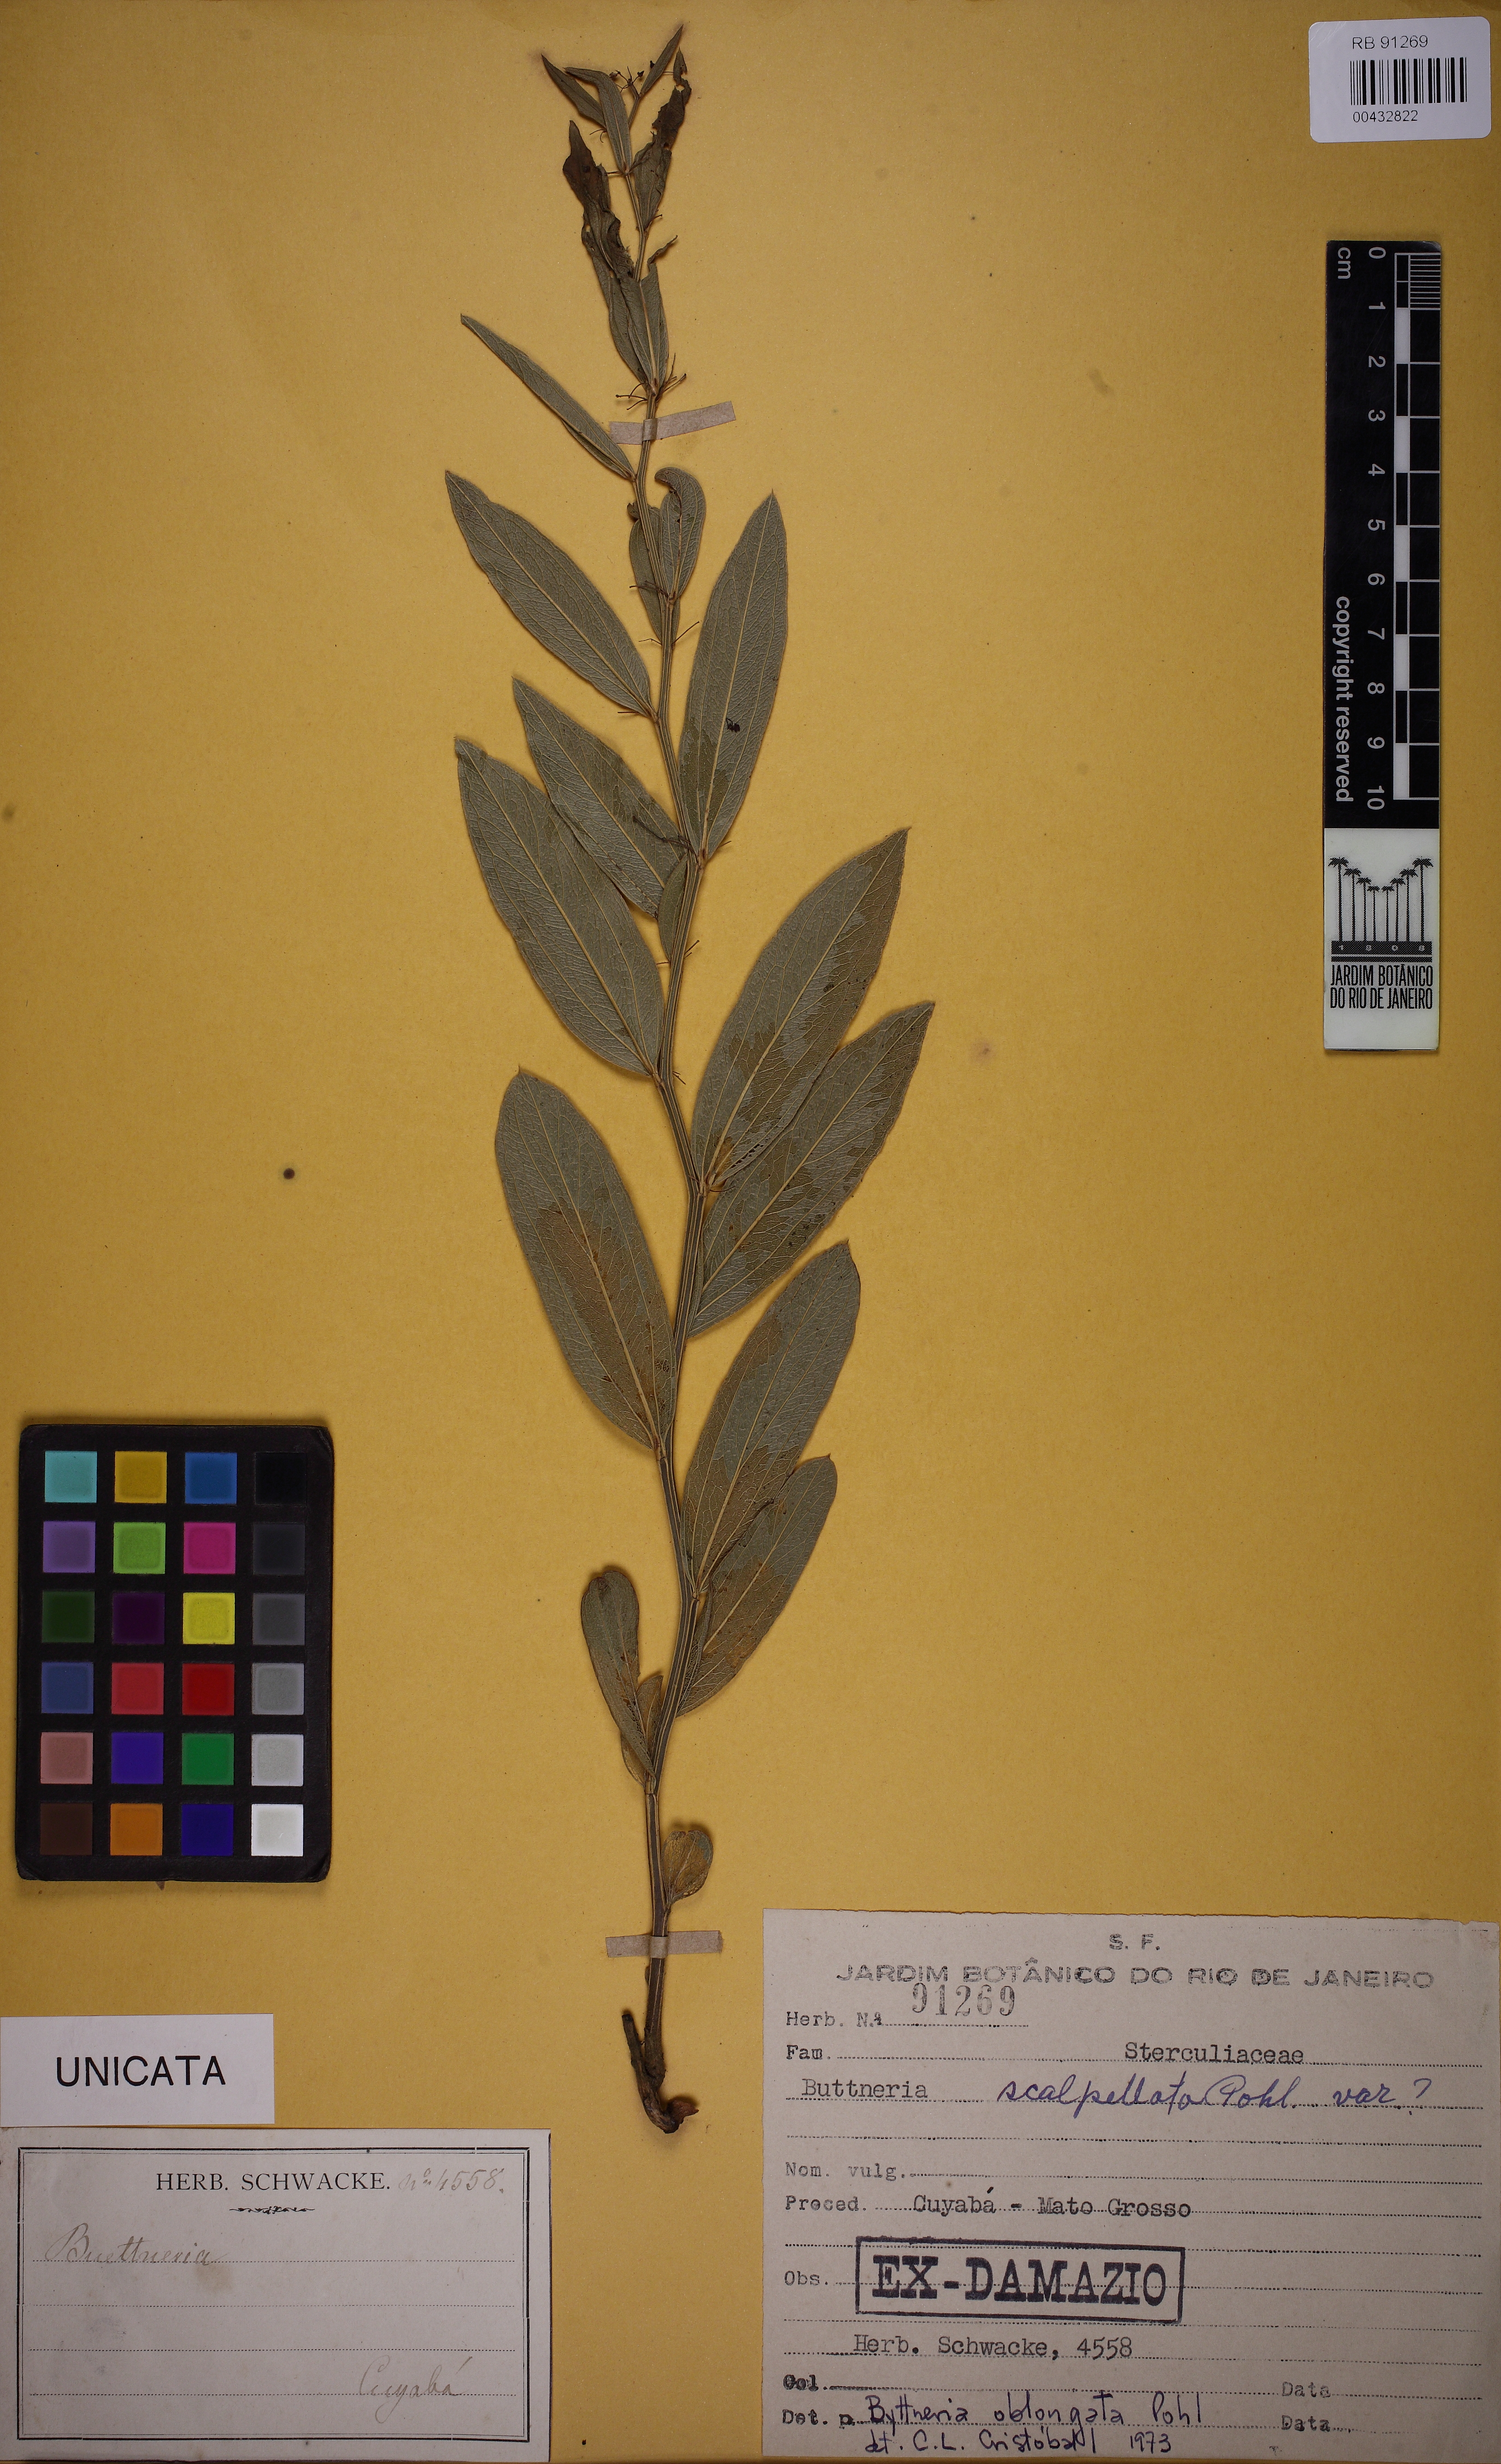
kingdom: Plantae
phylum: Tracheophyta
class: Magnoliopsida
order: Malvales
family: Malvaceae
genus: Byttneria
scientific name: Byttneria oblongata
